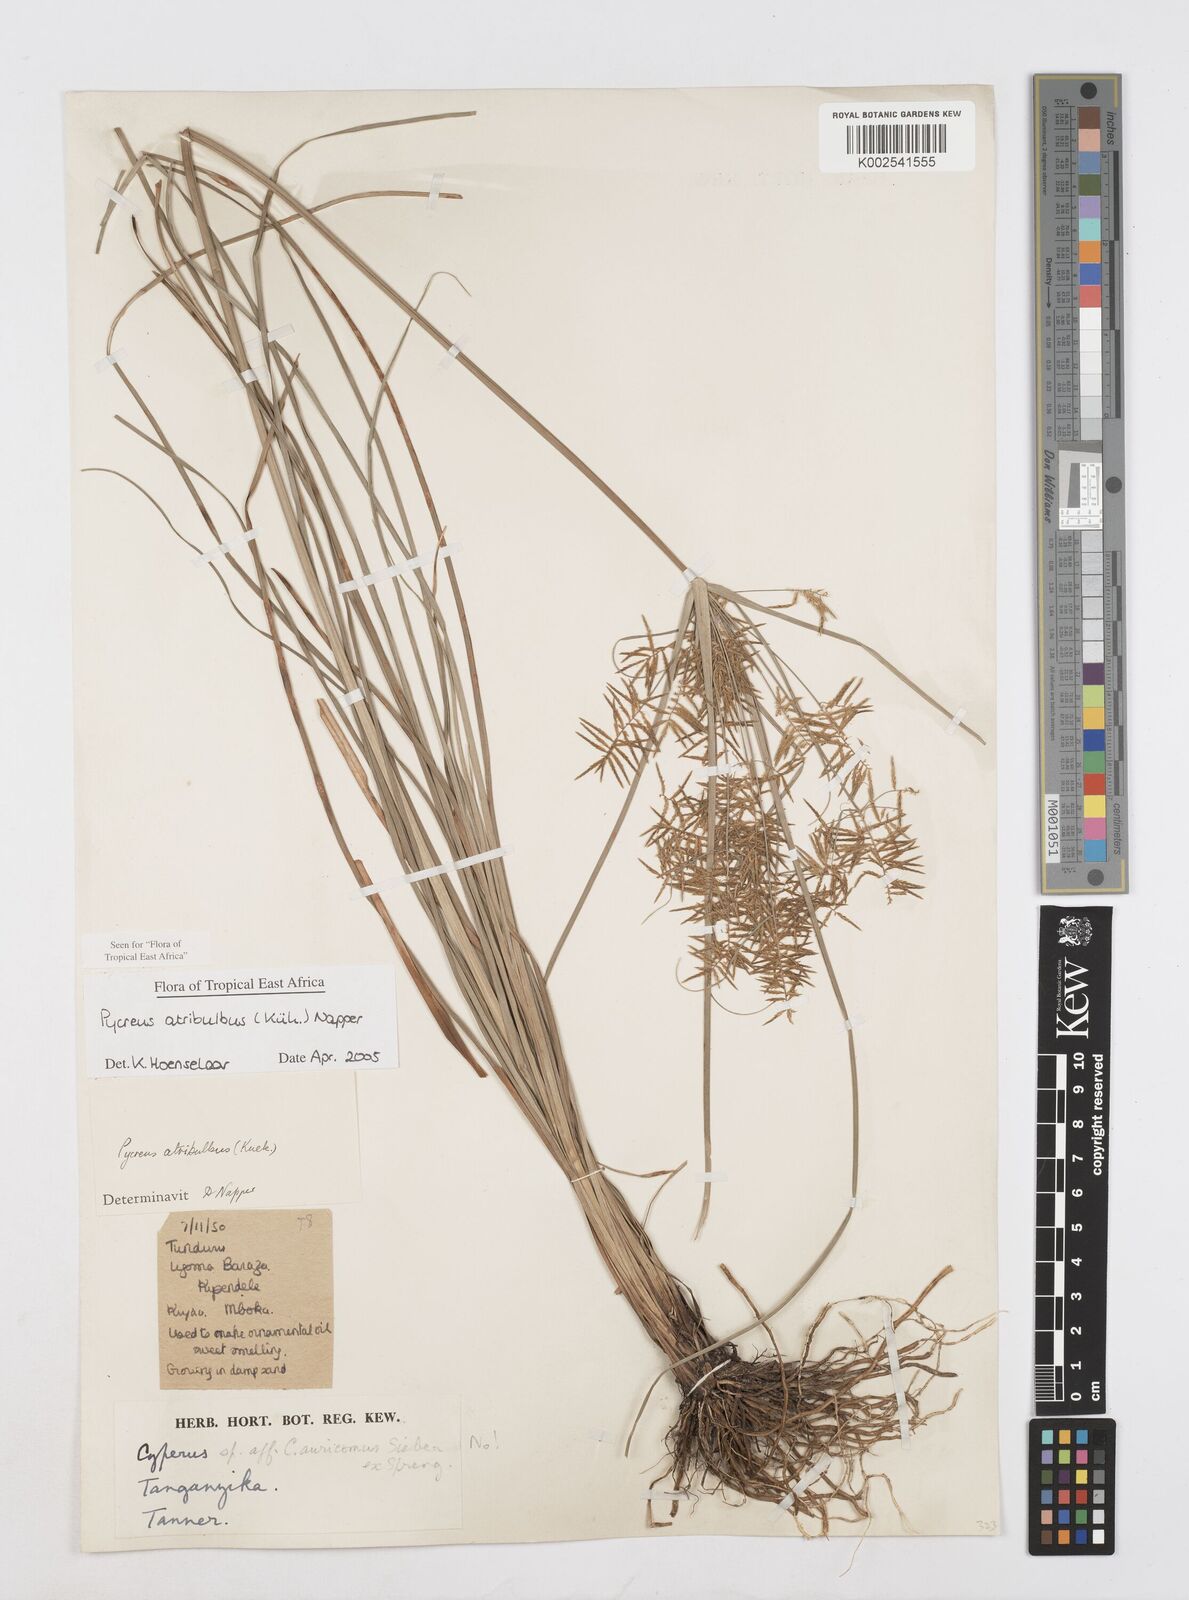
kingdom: Plantae
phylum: Tracheophyta
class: Liliopsida
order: Poales
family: Cyperaceae
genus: Cyperus
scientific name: Cyperus intactus
